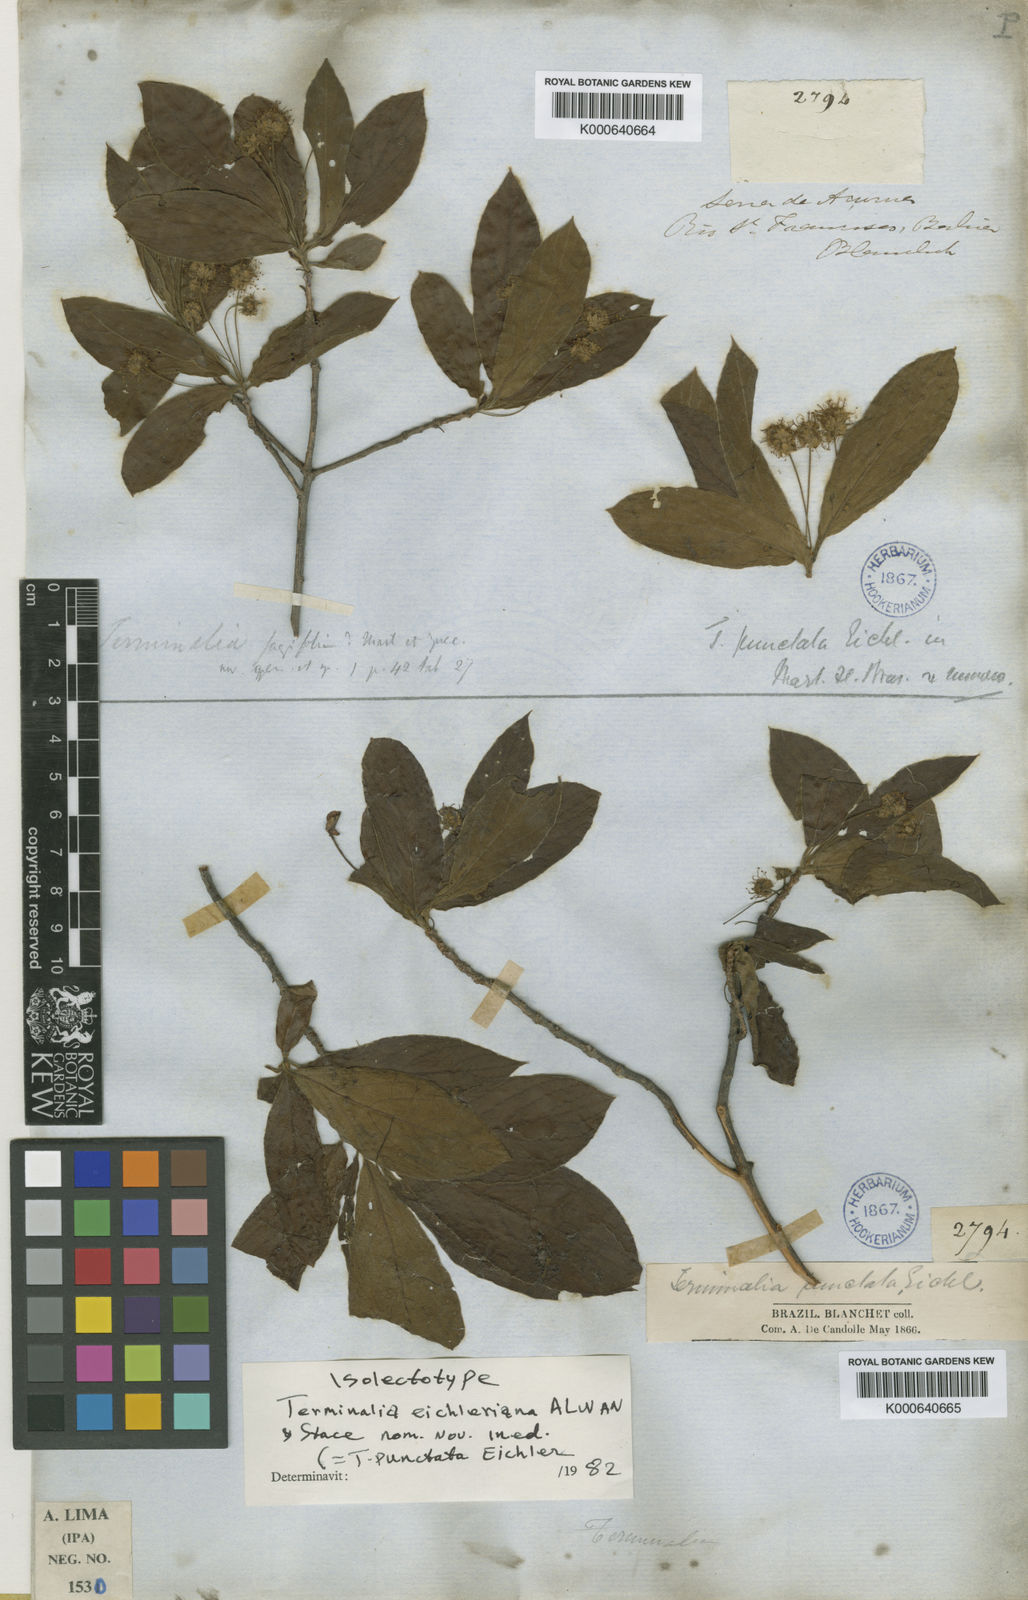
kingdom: Plantae
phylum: Tracheophyta
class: Magnoliopsida
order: Myrtales
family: Combretaceae
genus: Terminalia
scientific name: Terminalia eichleriana
